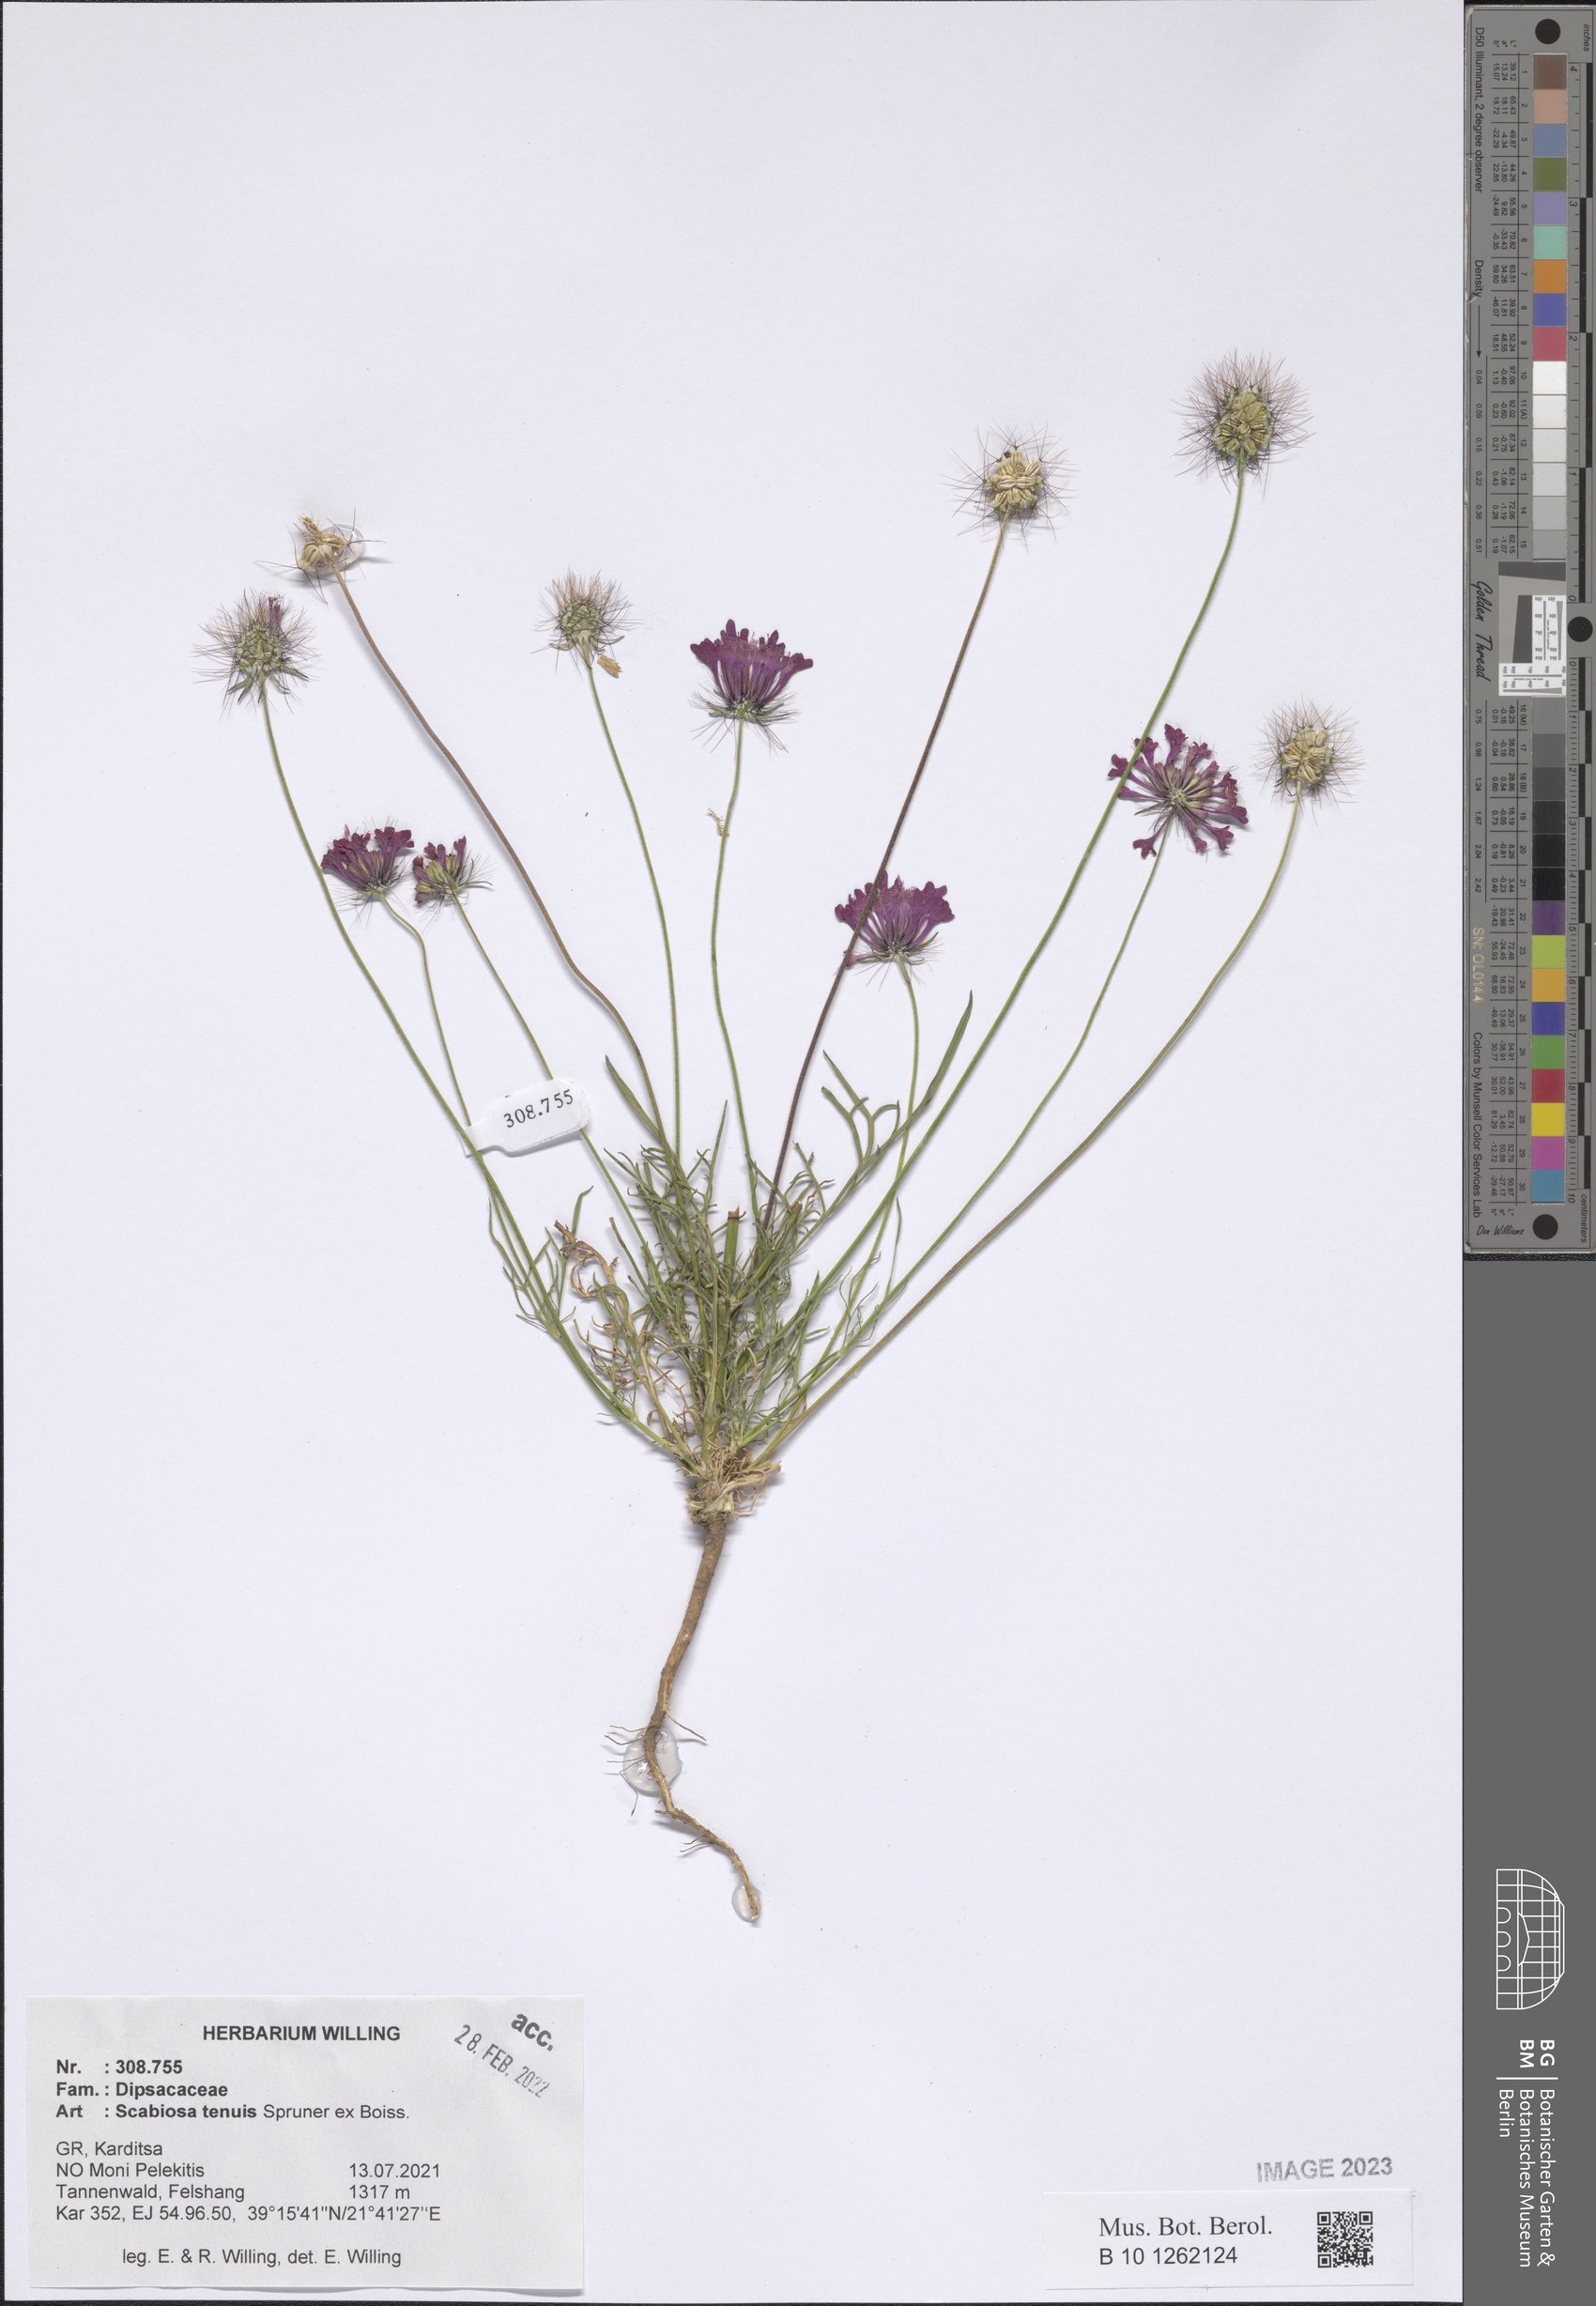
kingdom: Plantae
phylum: Tracheophyta
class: Magnoliopsida
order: Dipsacales
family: Caprifoliaceae
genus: Scabiosa
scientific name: Scabiosa tenuis
